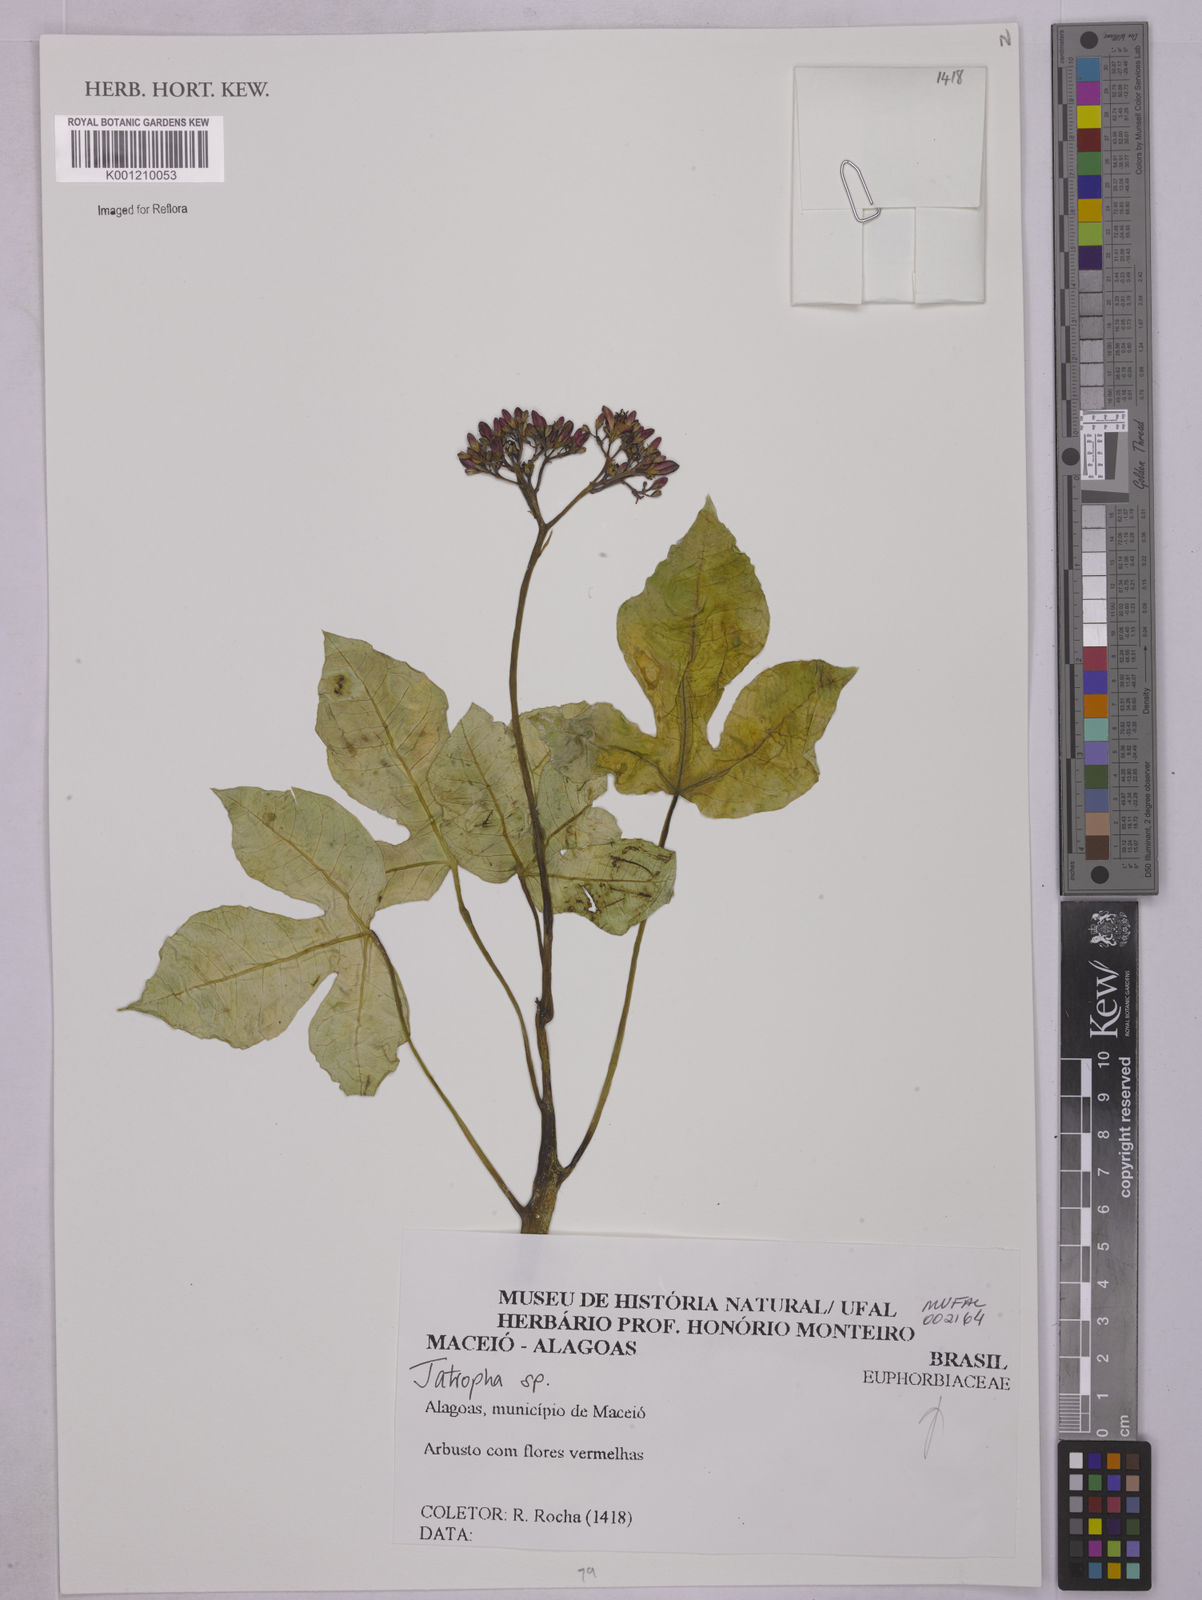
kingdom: Plantae
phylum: Tracheophyta
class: Magnoliopsida
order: Malpighiales
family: Euphorbiaceae
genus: Jatropha
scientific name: Jatropha
